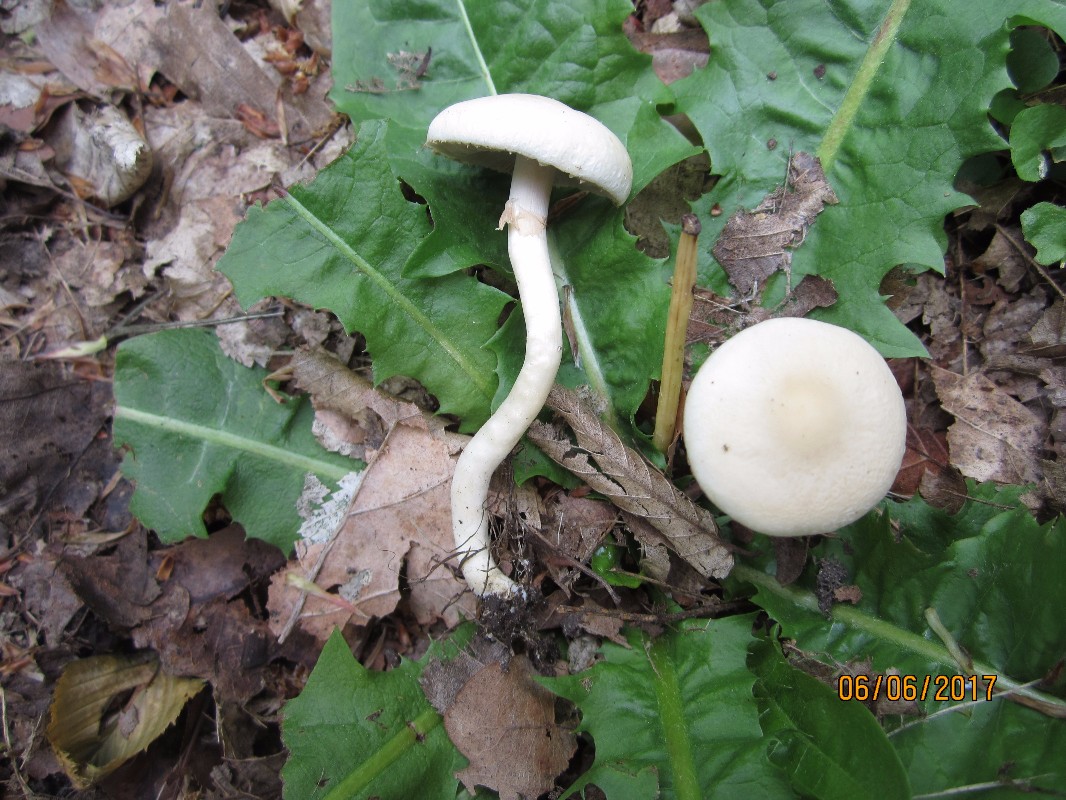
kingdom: Fungi
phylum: Basidiomycota
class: Agaricomycetes
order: Agaricales
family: Strophariaceae
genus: Agrocybe
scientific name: Agrocybe praecox
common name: tidlig agerhat
